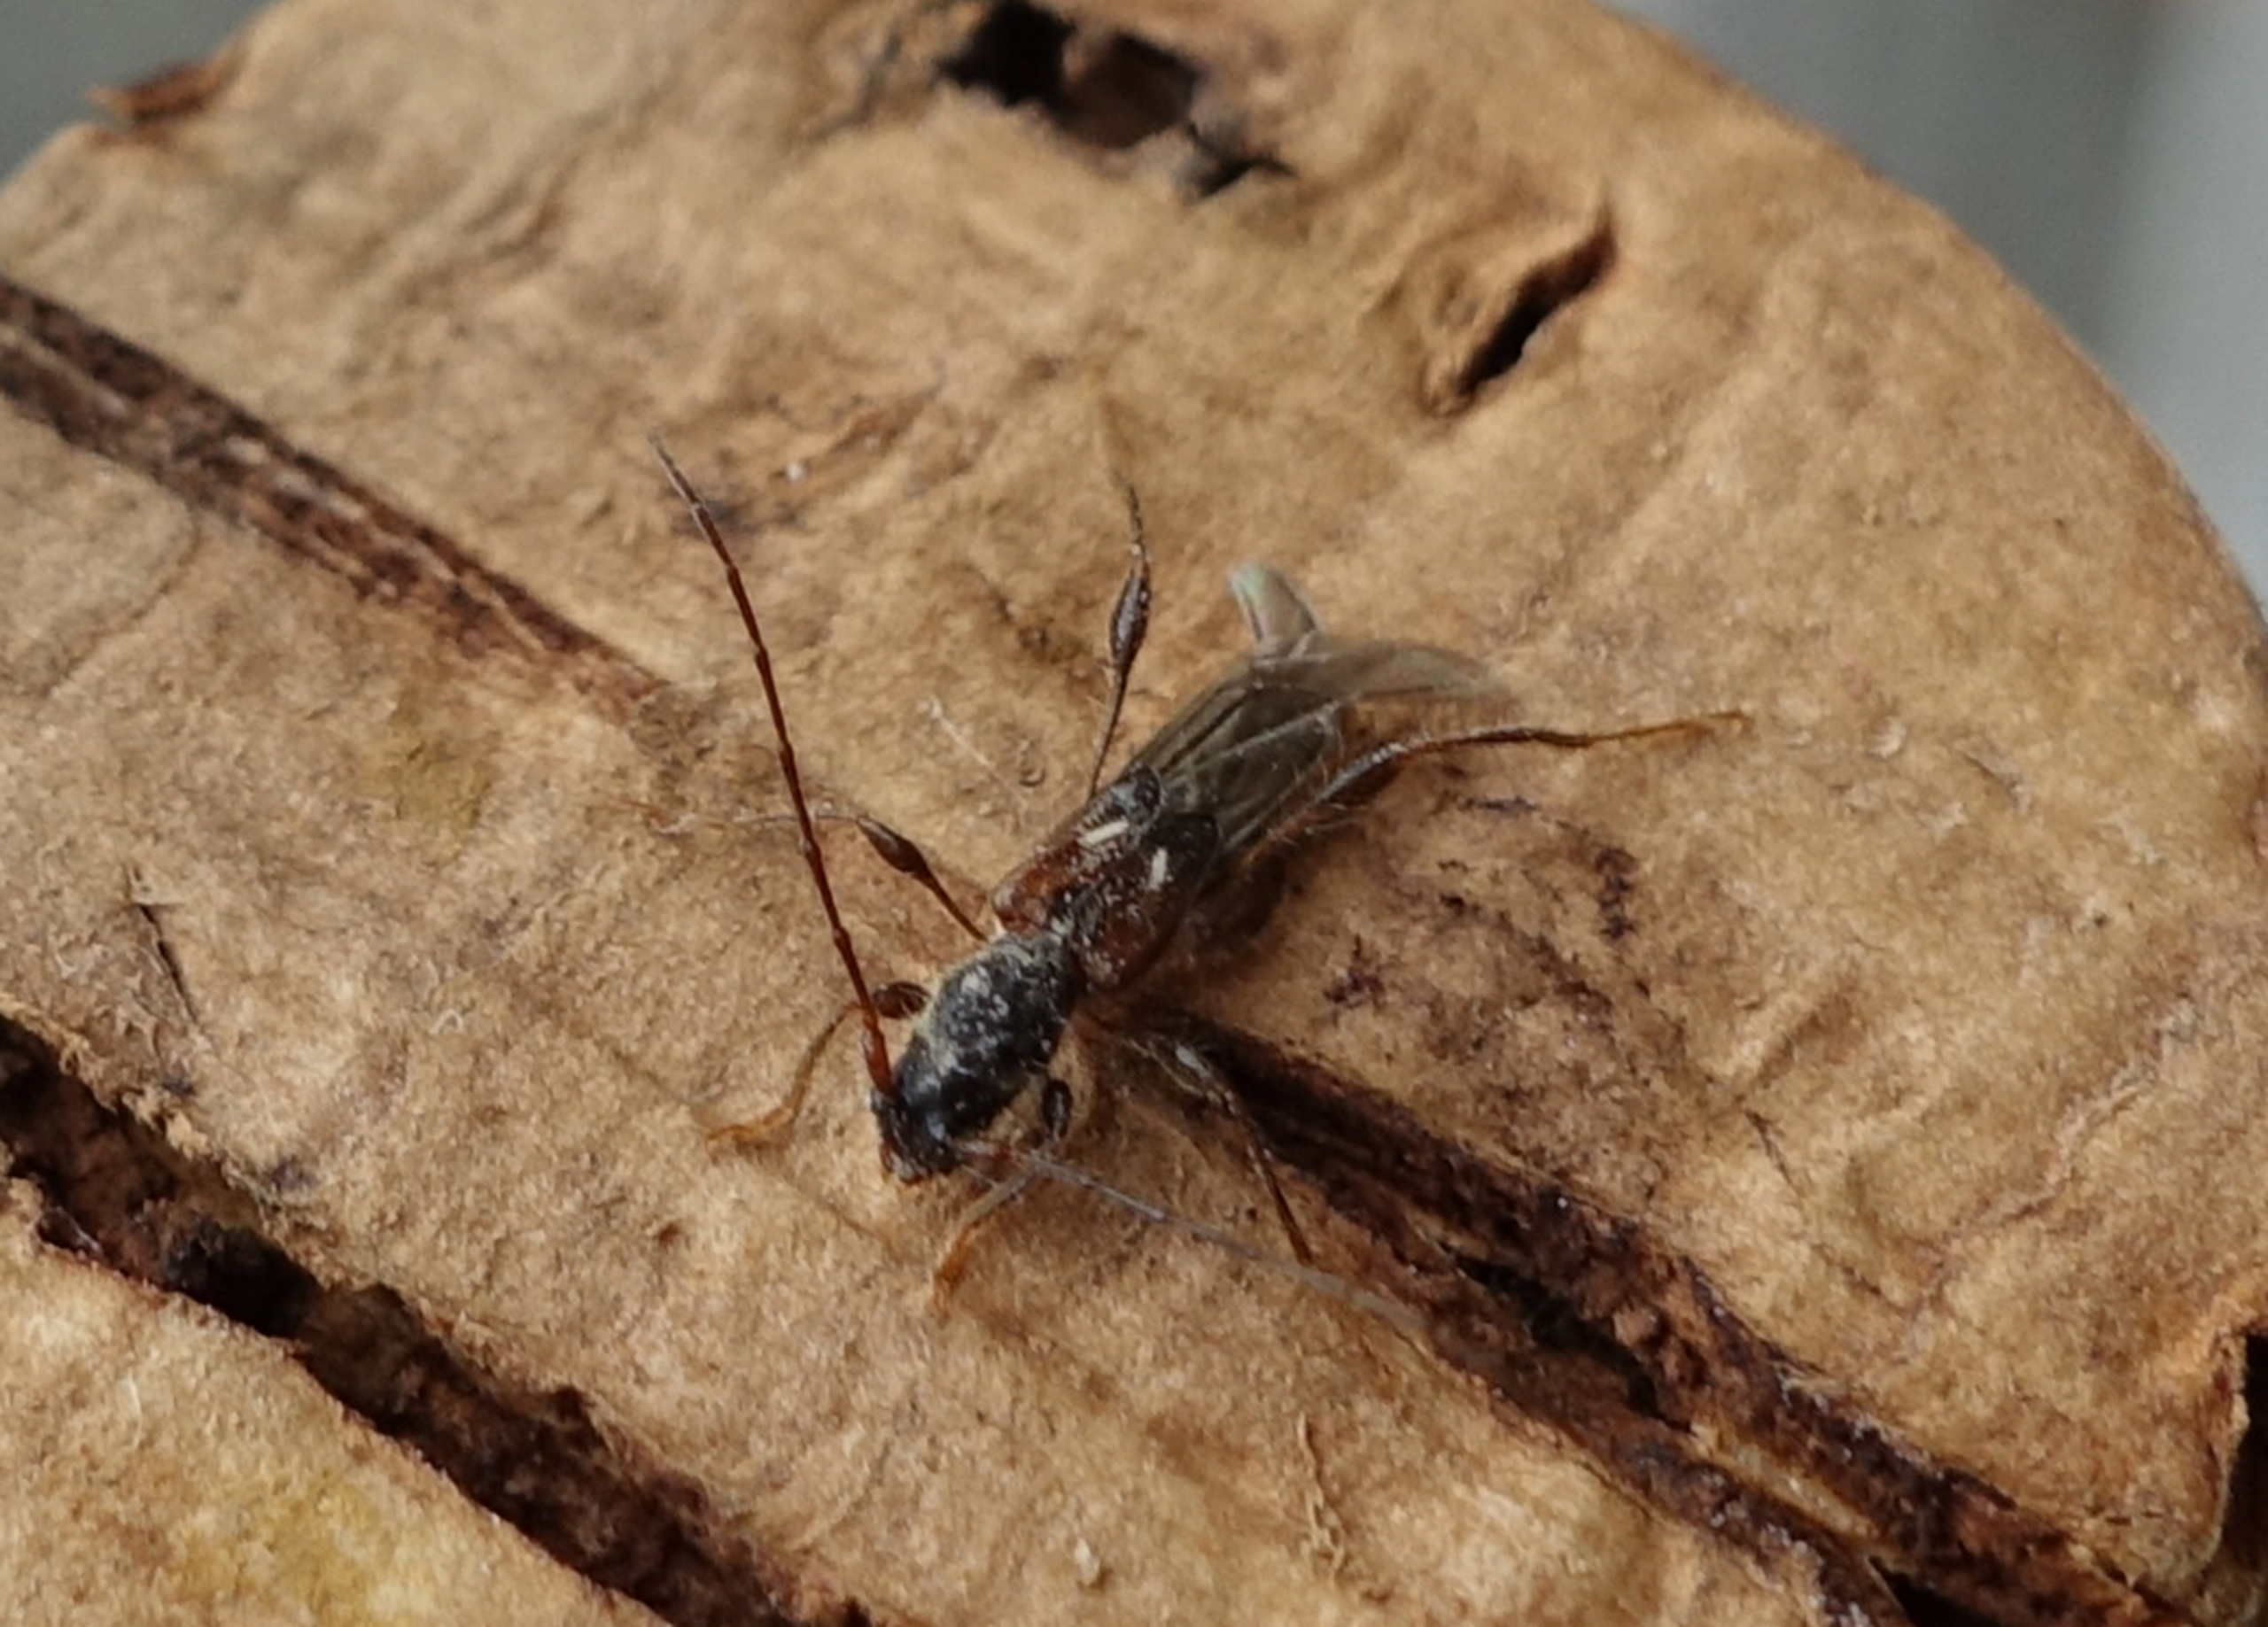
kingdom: Animalia
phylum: Arthropoda
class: Insecta
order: Coleoptera
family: Cerambycidae
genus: Molorchus
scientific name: Molorchus minor
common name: Fluebuk
